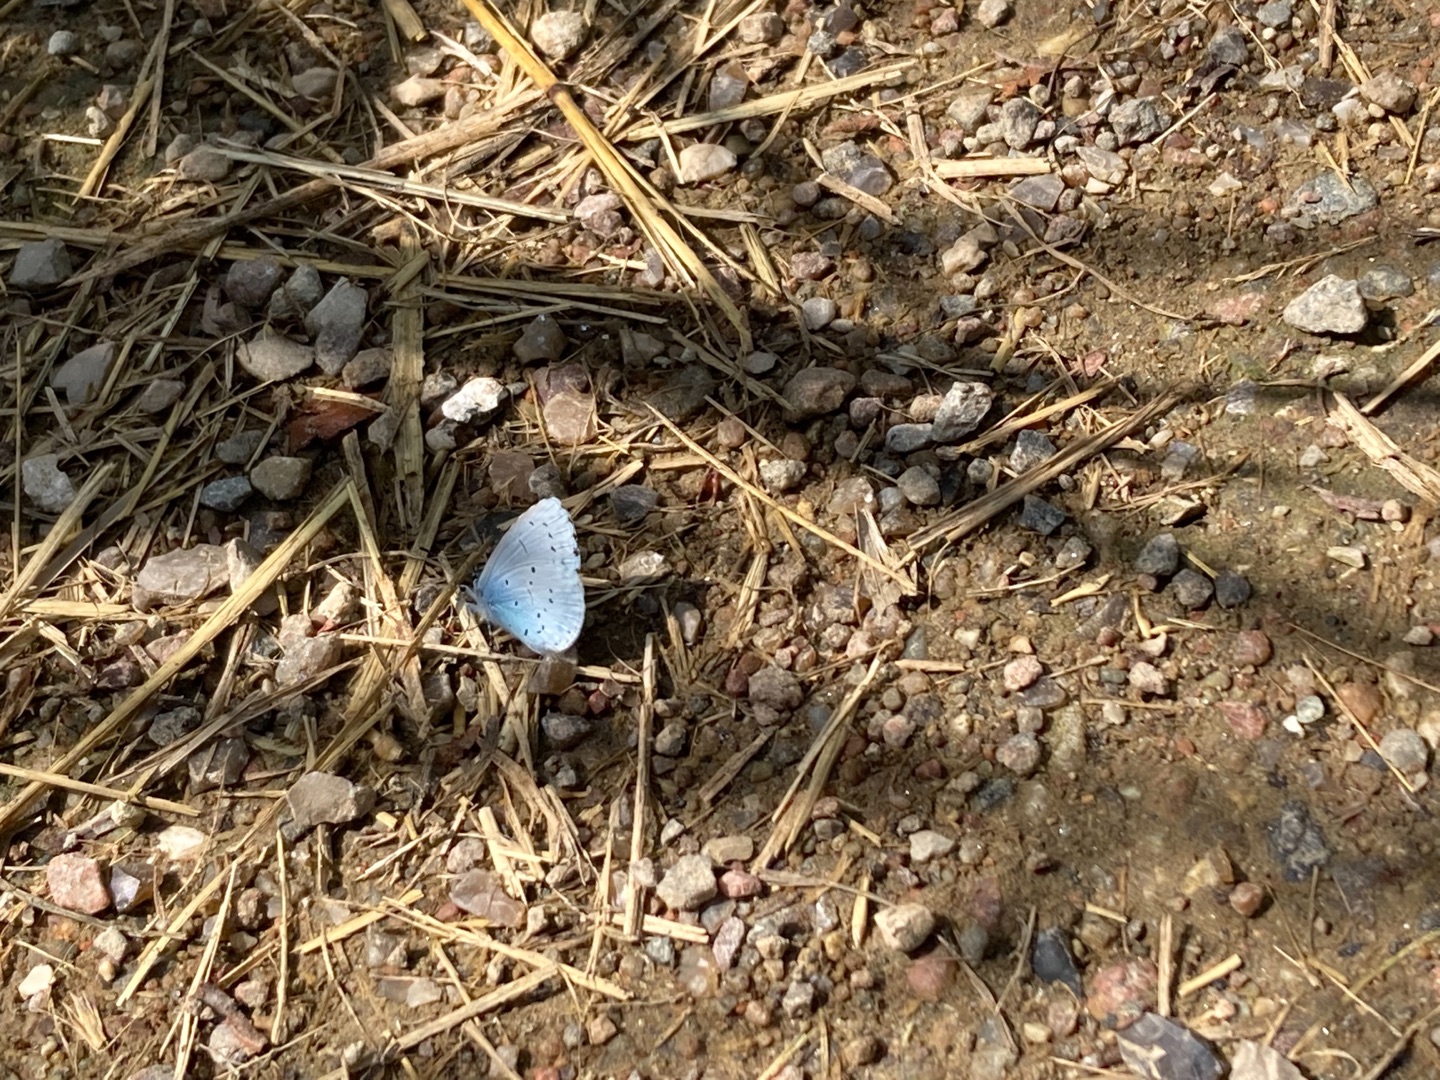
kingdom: Animalia
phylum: Arthropoda
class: Insecta
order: Lepidoptera
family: Lycaenidae
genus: Celastrina
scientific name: Celastrina argiolus
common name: Skovblåfugl
